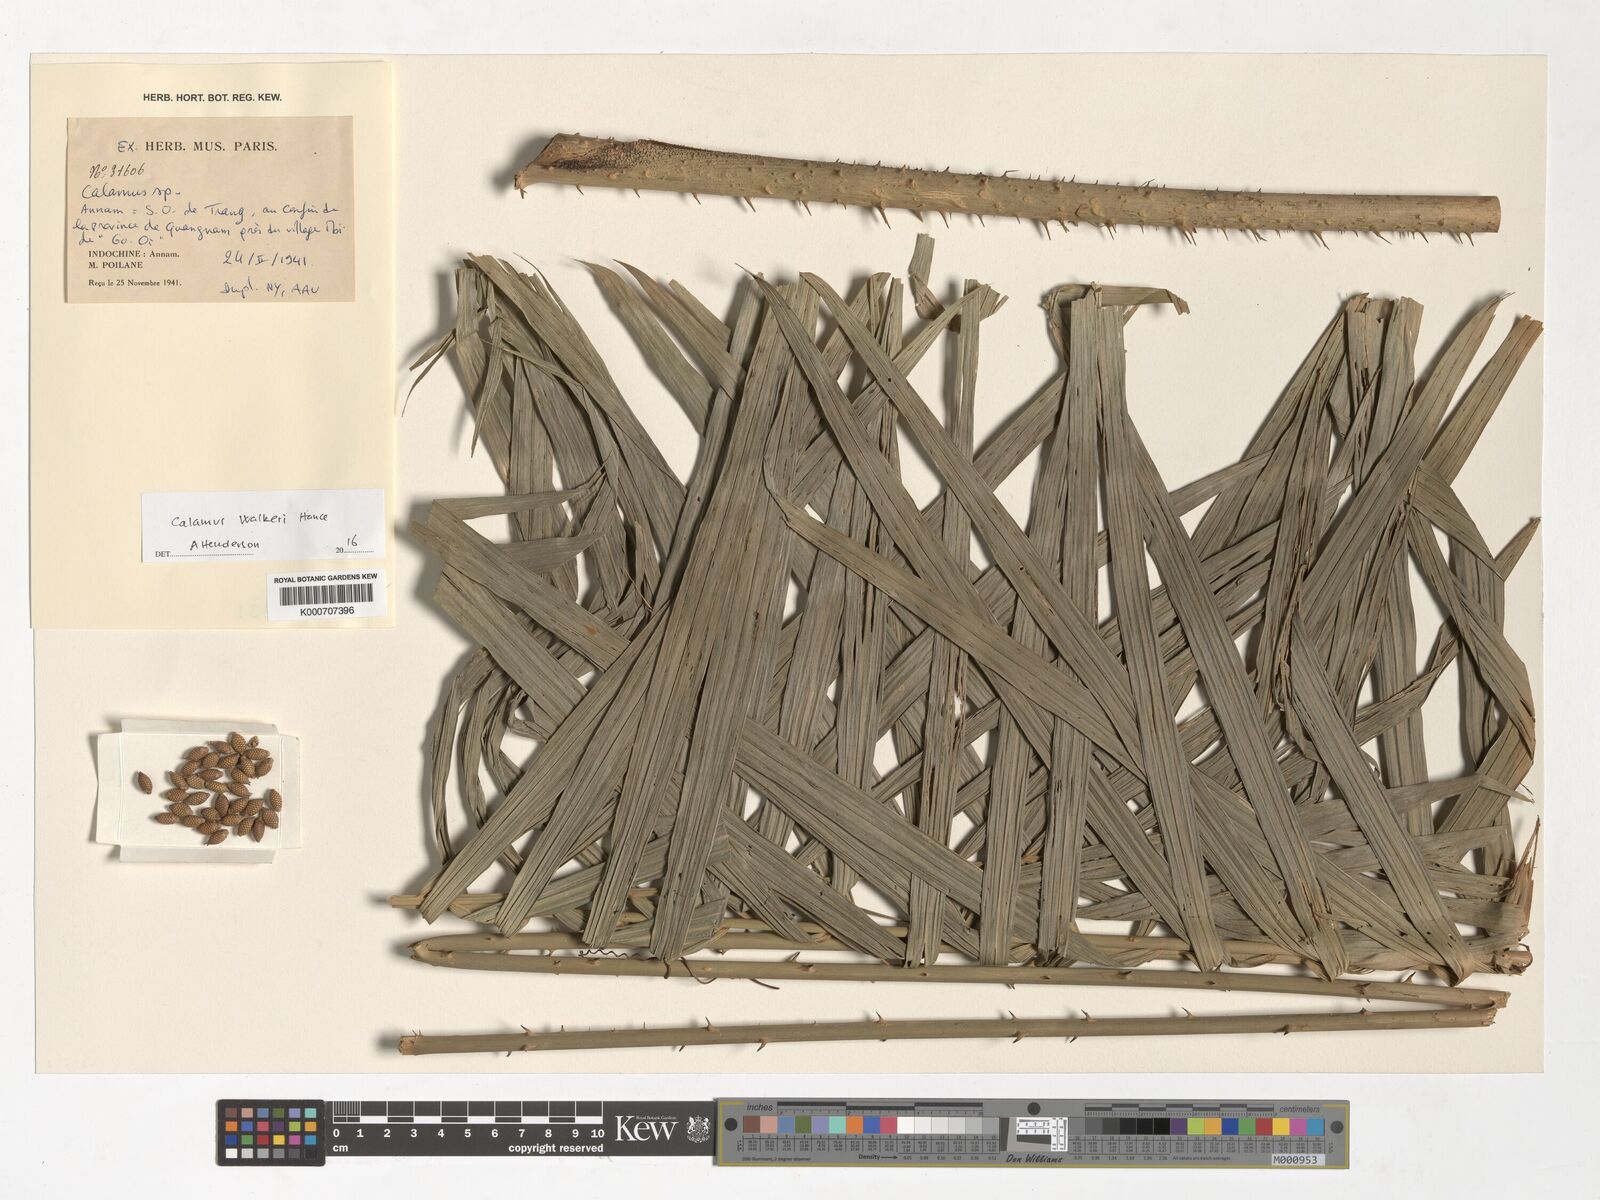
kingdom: Plantae
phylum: Tracheophyta
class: Liliopsida
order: Arecales
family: Arecaceae
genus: Calamus
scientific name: Calamus walkeri
